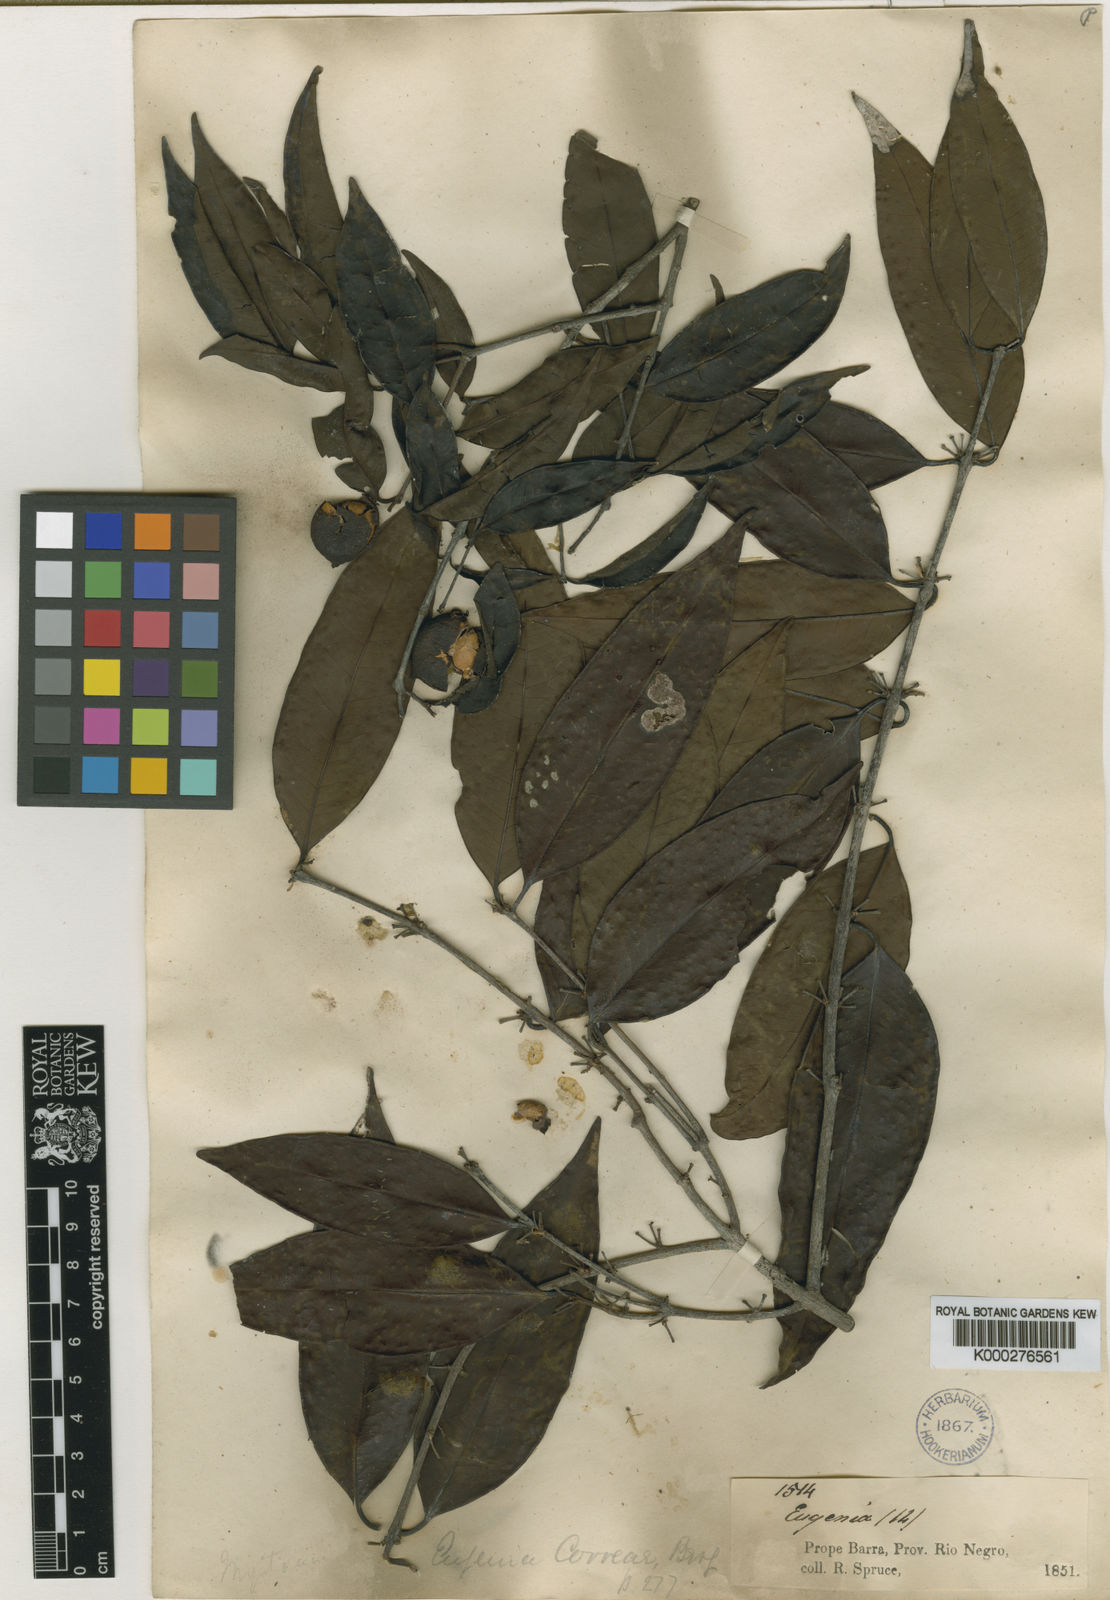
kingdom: Plantae
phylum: Tracheophyta
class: Magnoliopsida
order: Myrtales
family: Myrtaceae
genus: Eugenia
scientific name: Eugenia lambertiana
